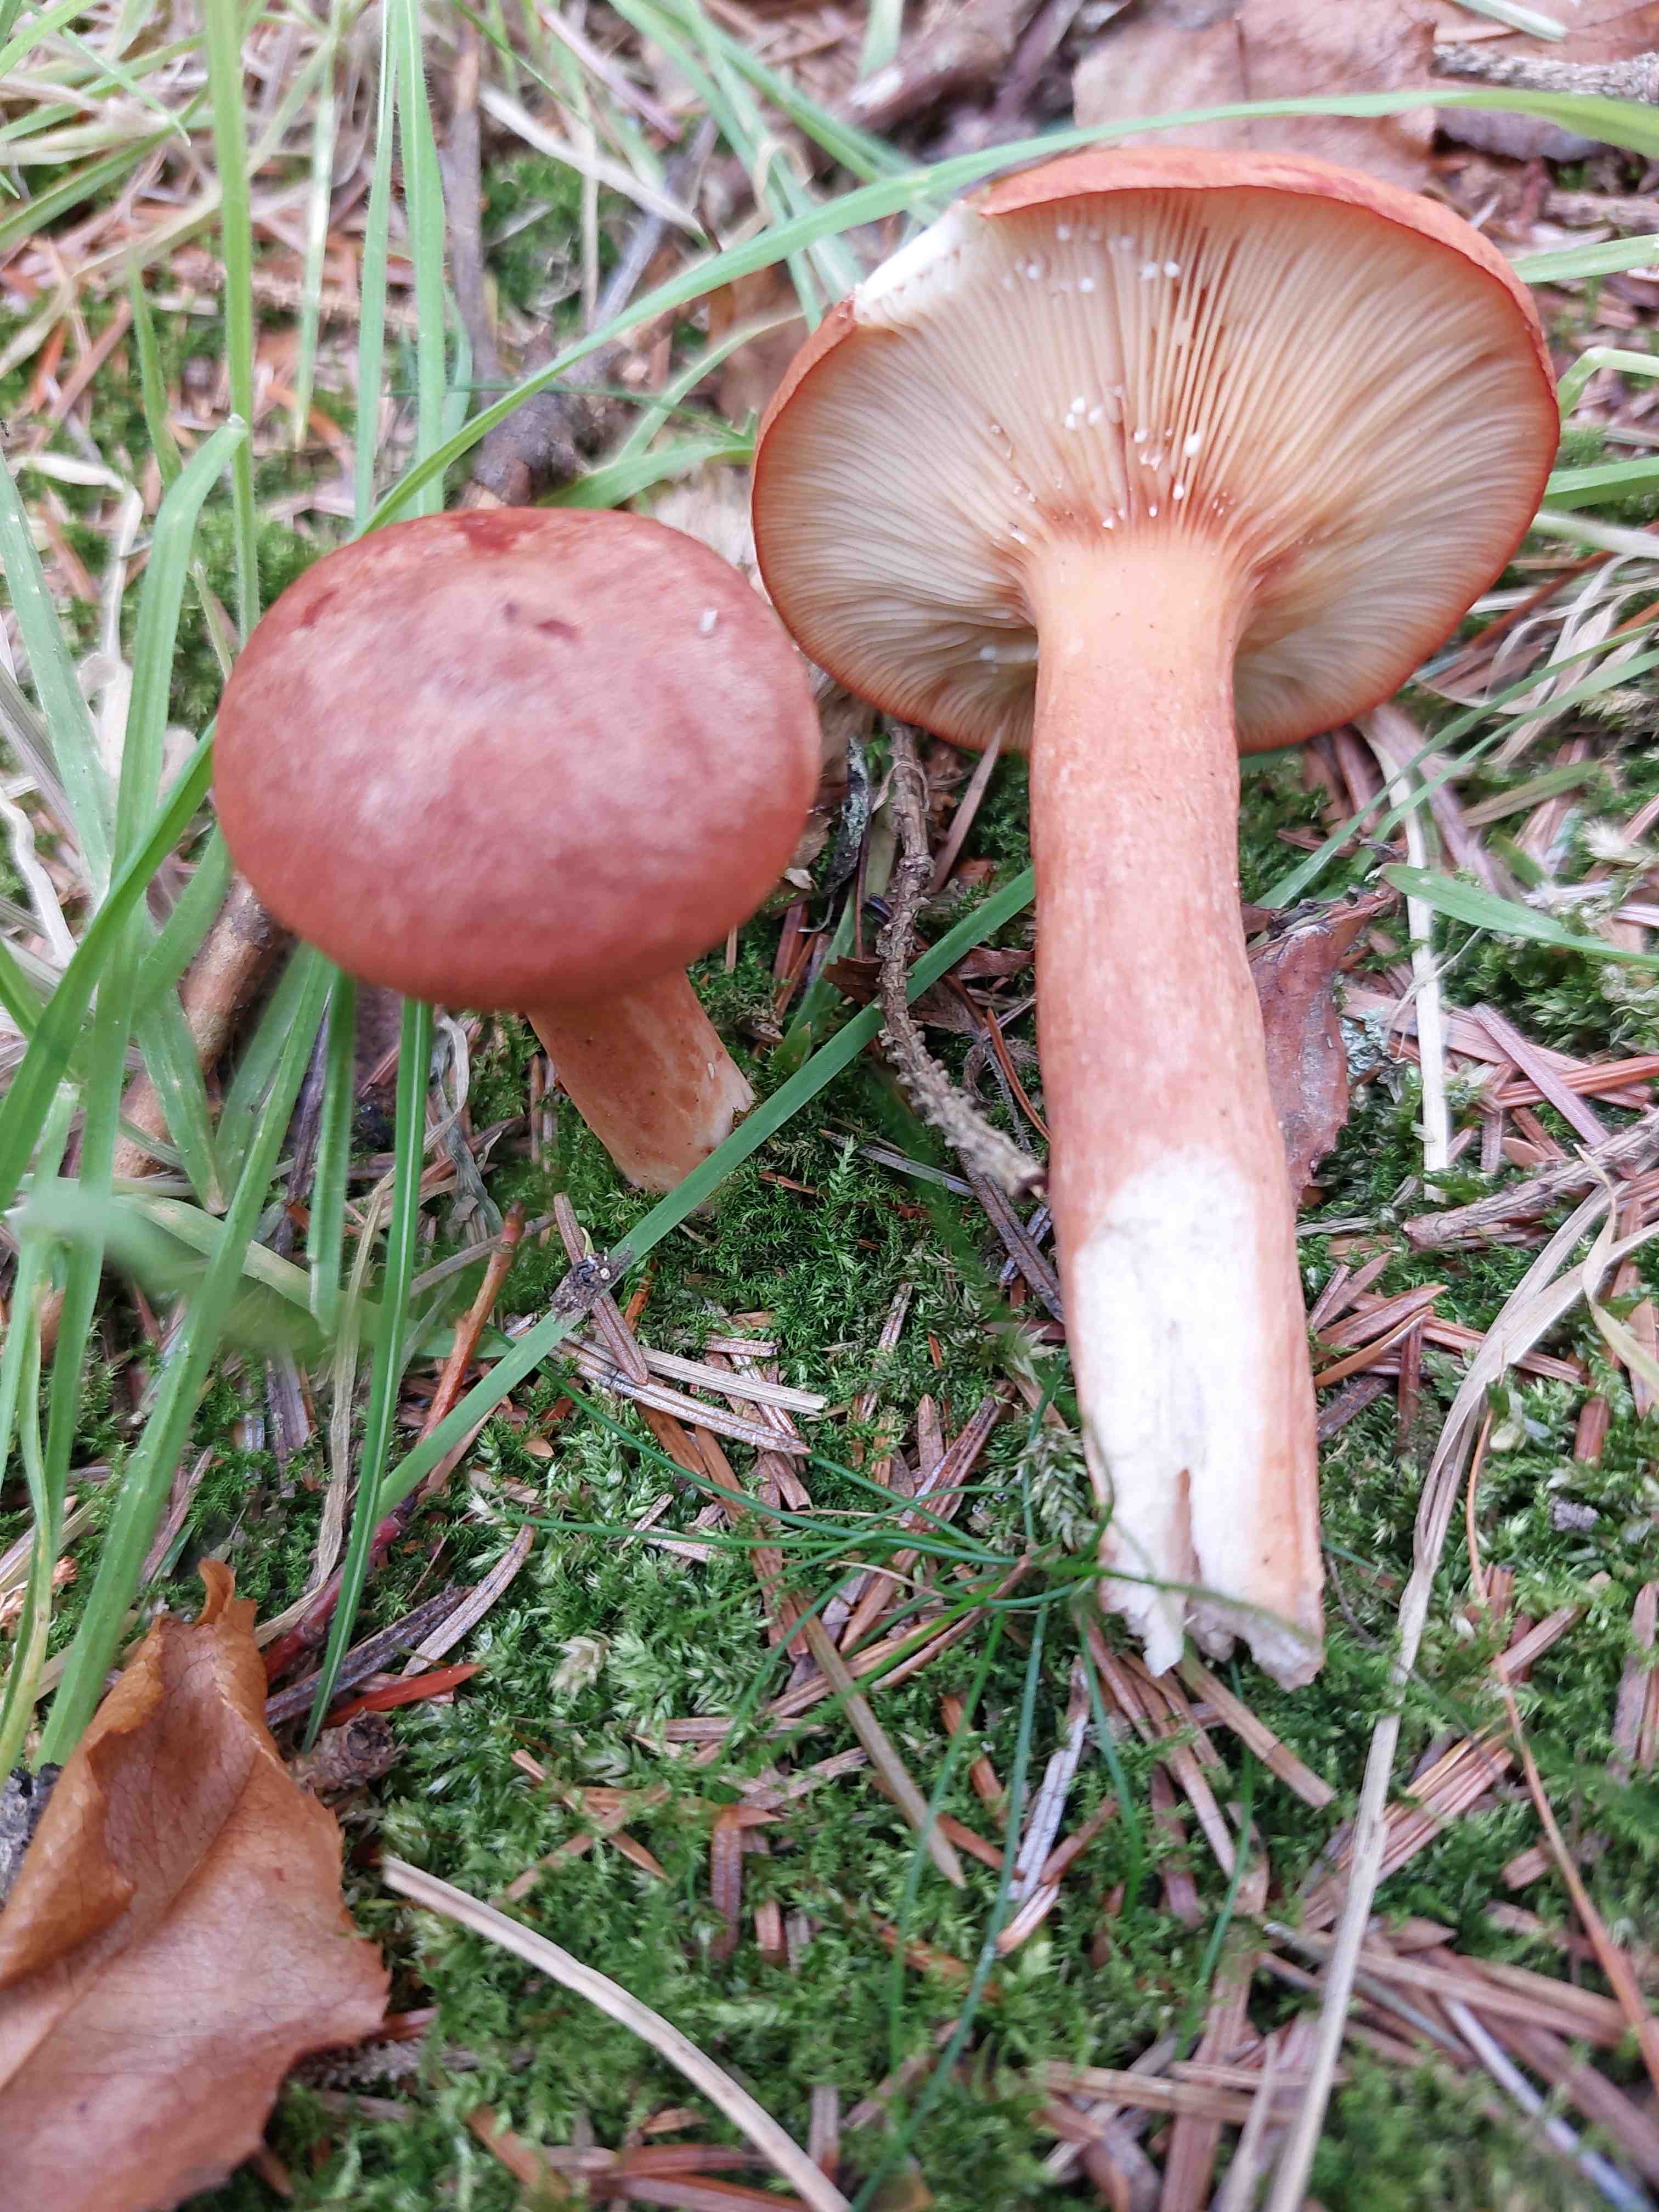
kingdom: Fungi
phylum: Basidiomycota
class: Agaricomycetes
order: Russulales
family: Russulaceae
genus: Lactarius
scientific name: Lactarius rufus
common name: rødbrun mælkehat
